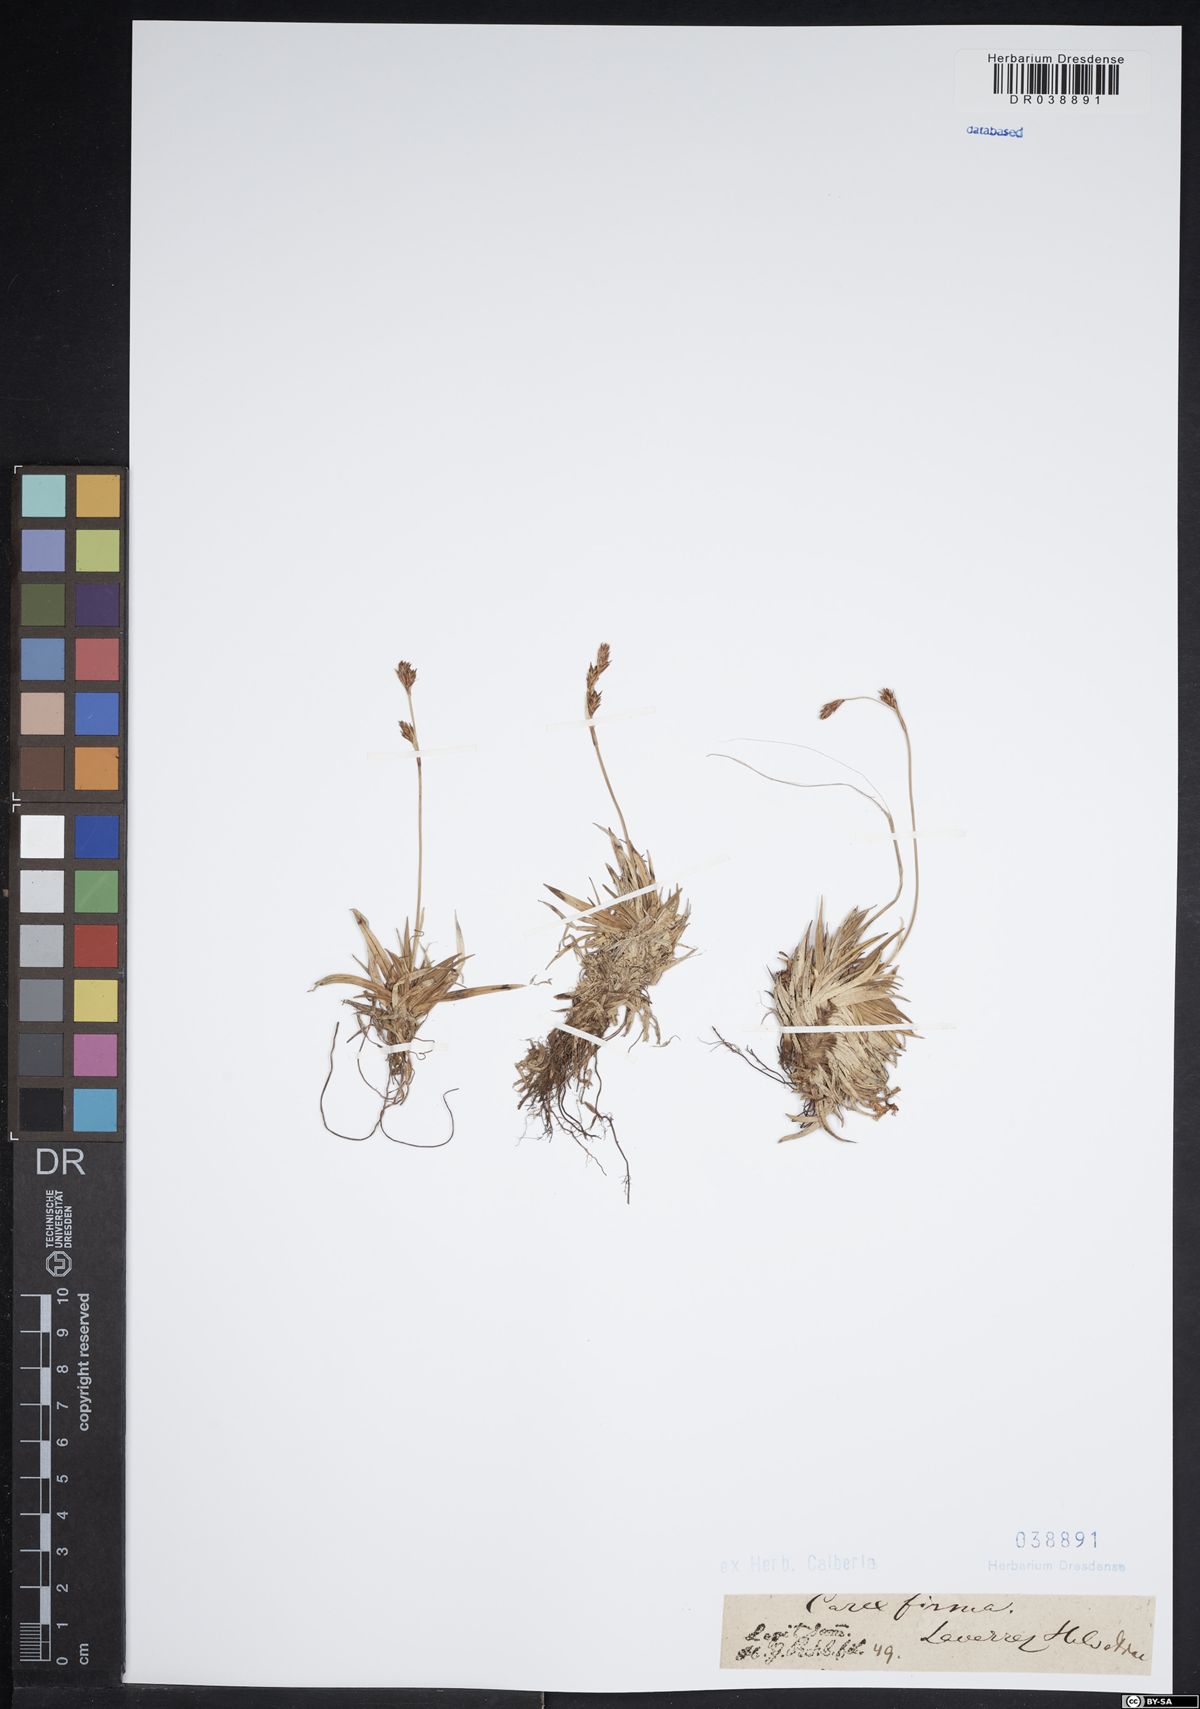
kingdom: Plantae
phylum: Tracheophyta
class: Liliopsida
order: Poales
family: Cyperaceae
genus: Carex
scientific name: Carex firma
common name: Dwarf pillow sedge
